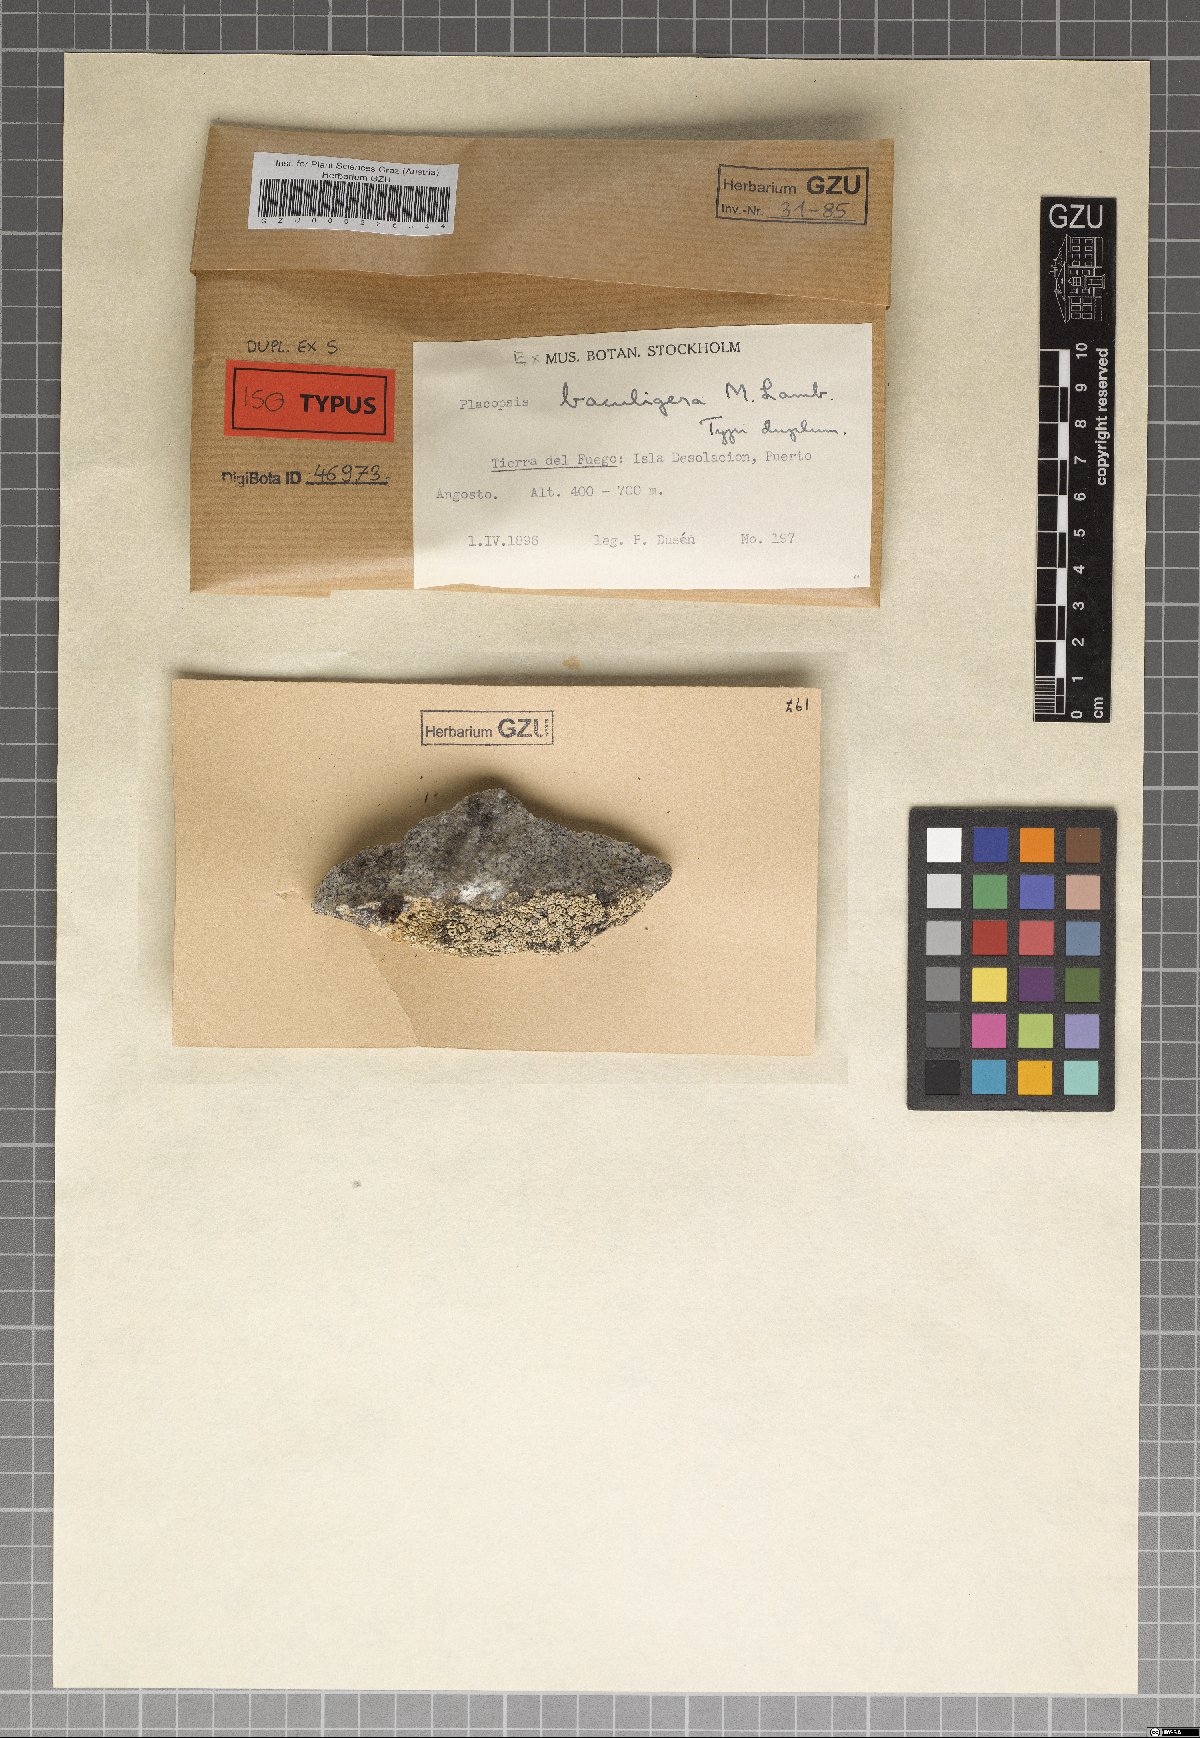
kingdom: Fungi
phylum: Ascomycota
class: Lecanoromycetes
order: Baeomycetales
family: Trapeliaceae
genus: Placopsis
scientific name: Placopsis
